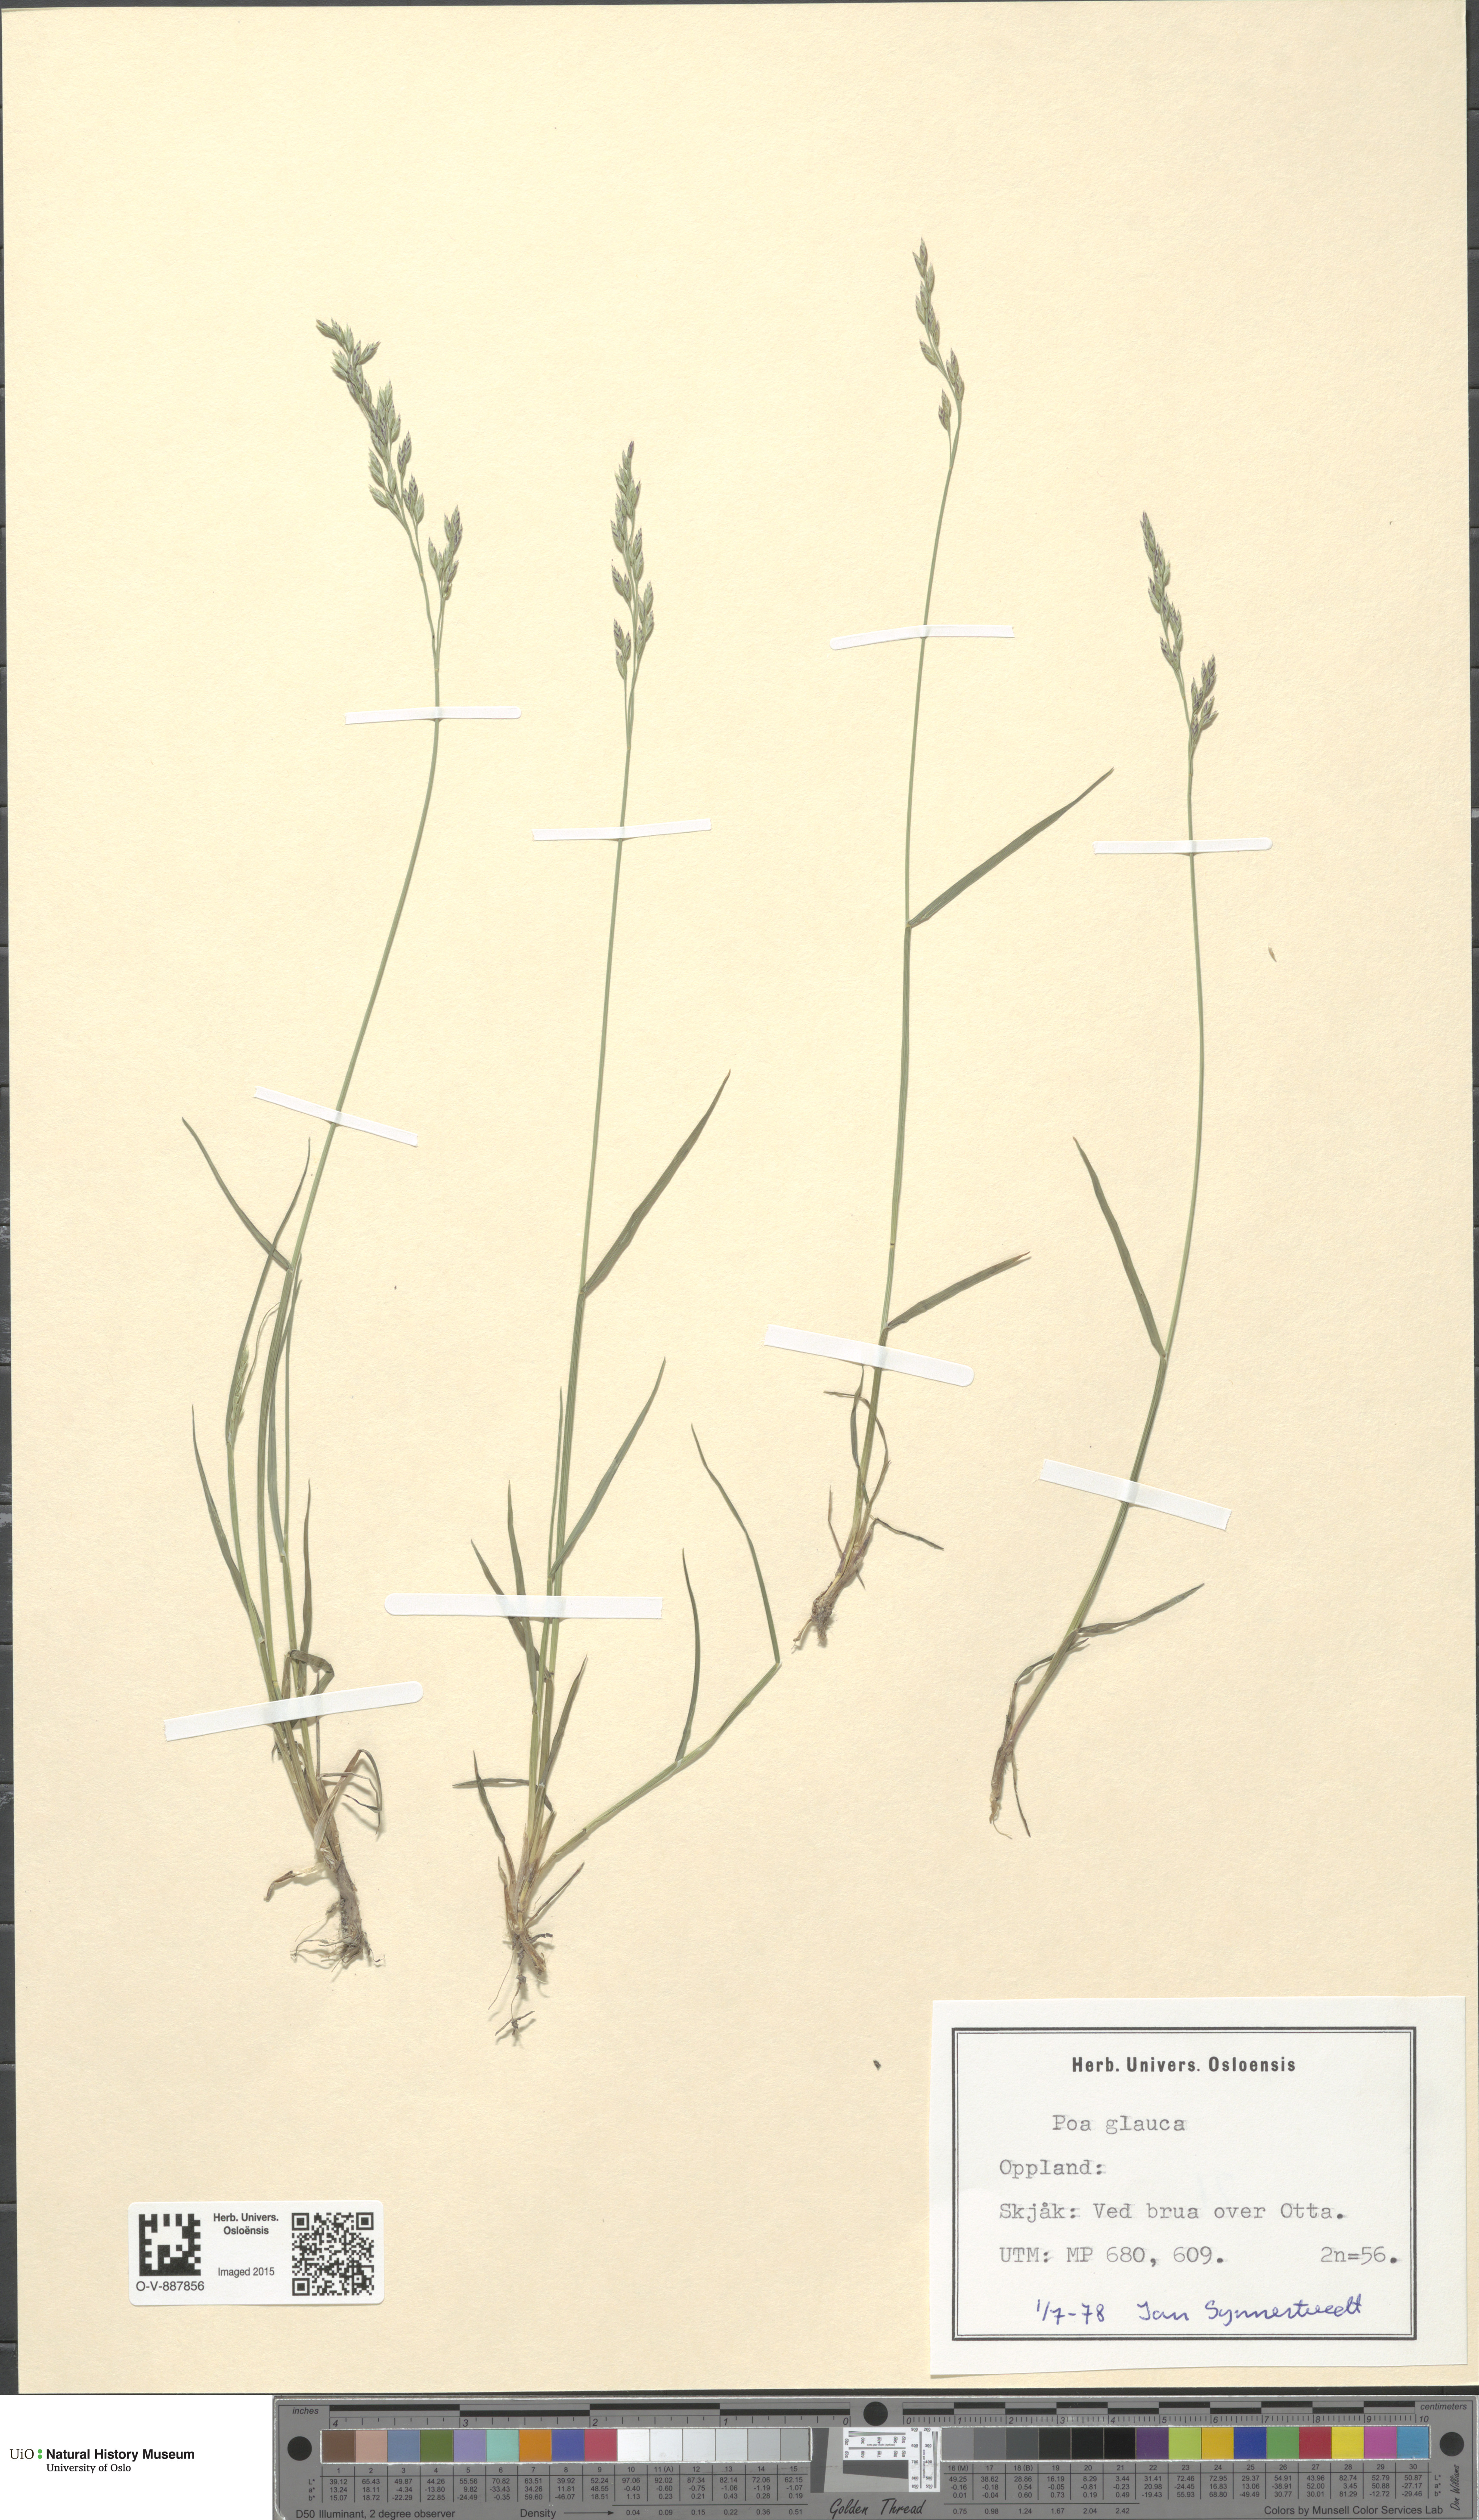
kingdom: Plantae
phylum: Tracheophyta
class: Liliopsida
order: Poales
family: Poaceae
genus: Poa
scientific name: Poa glauca
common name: Glaucous bluegrass
